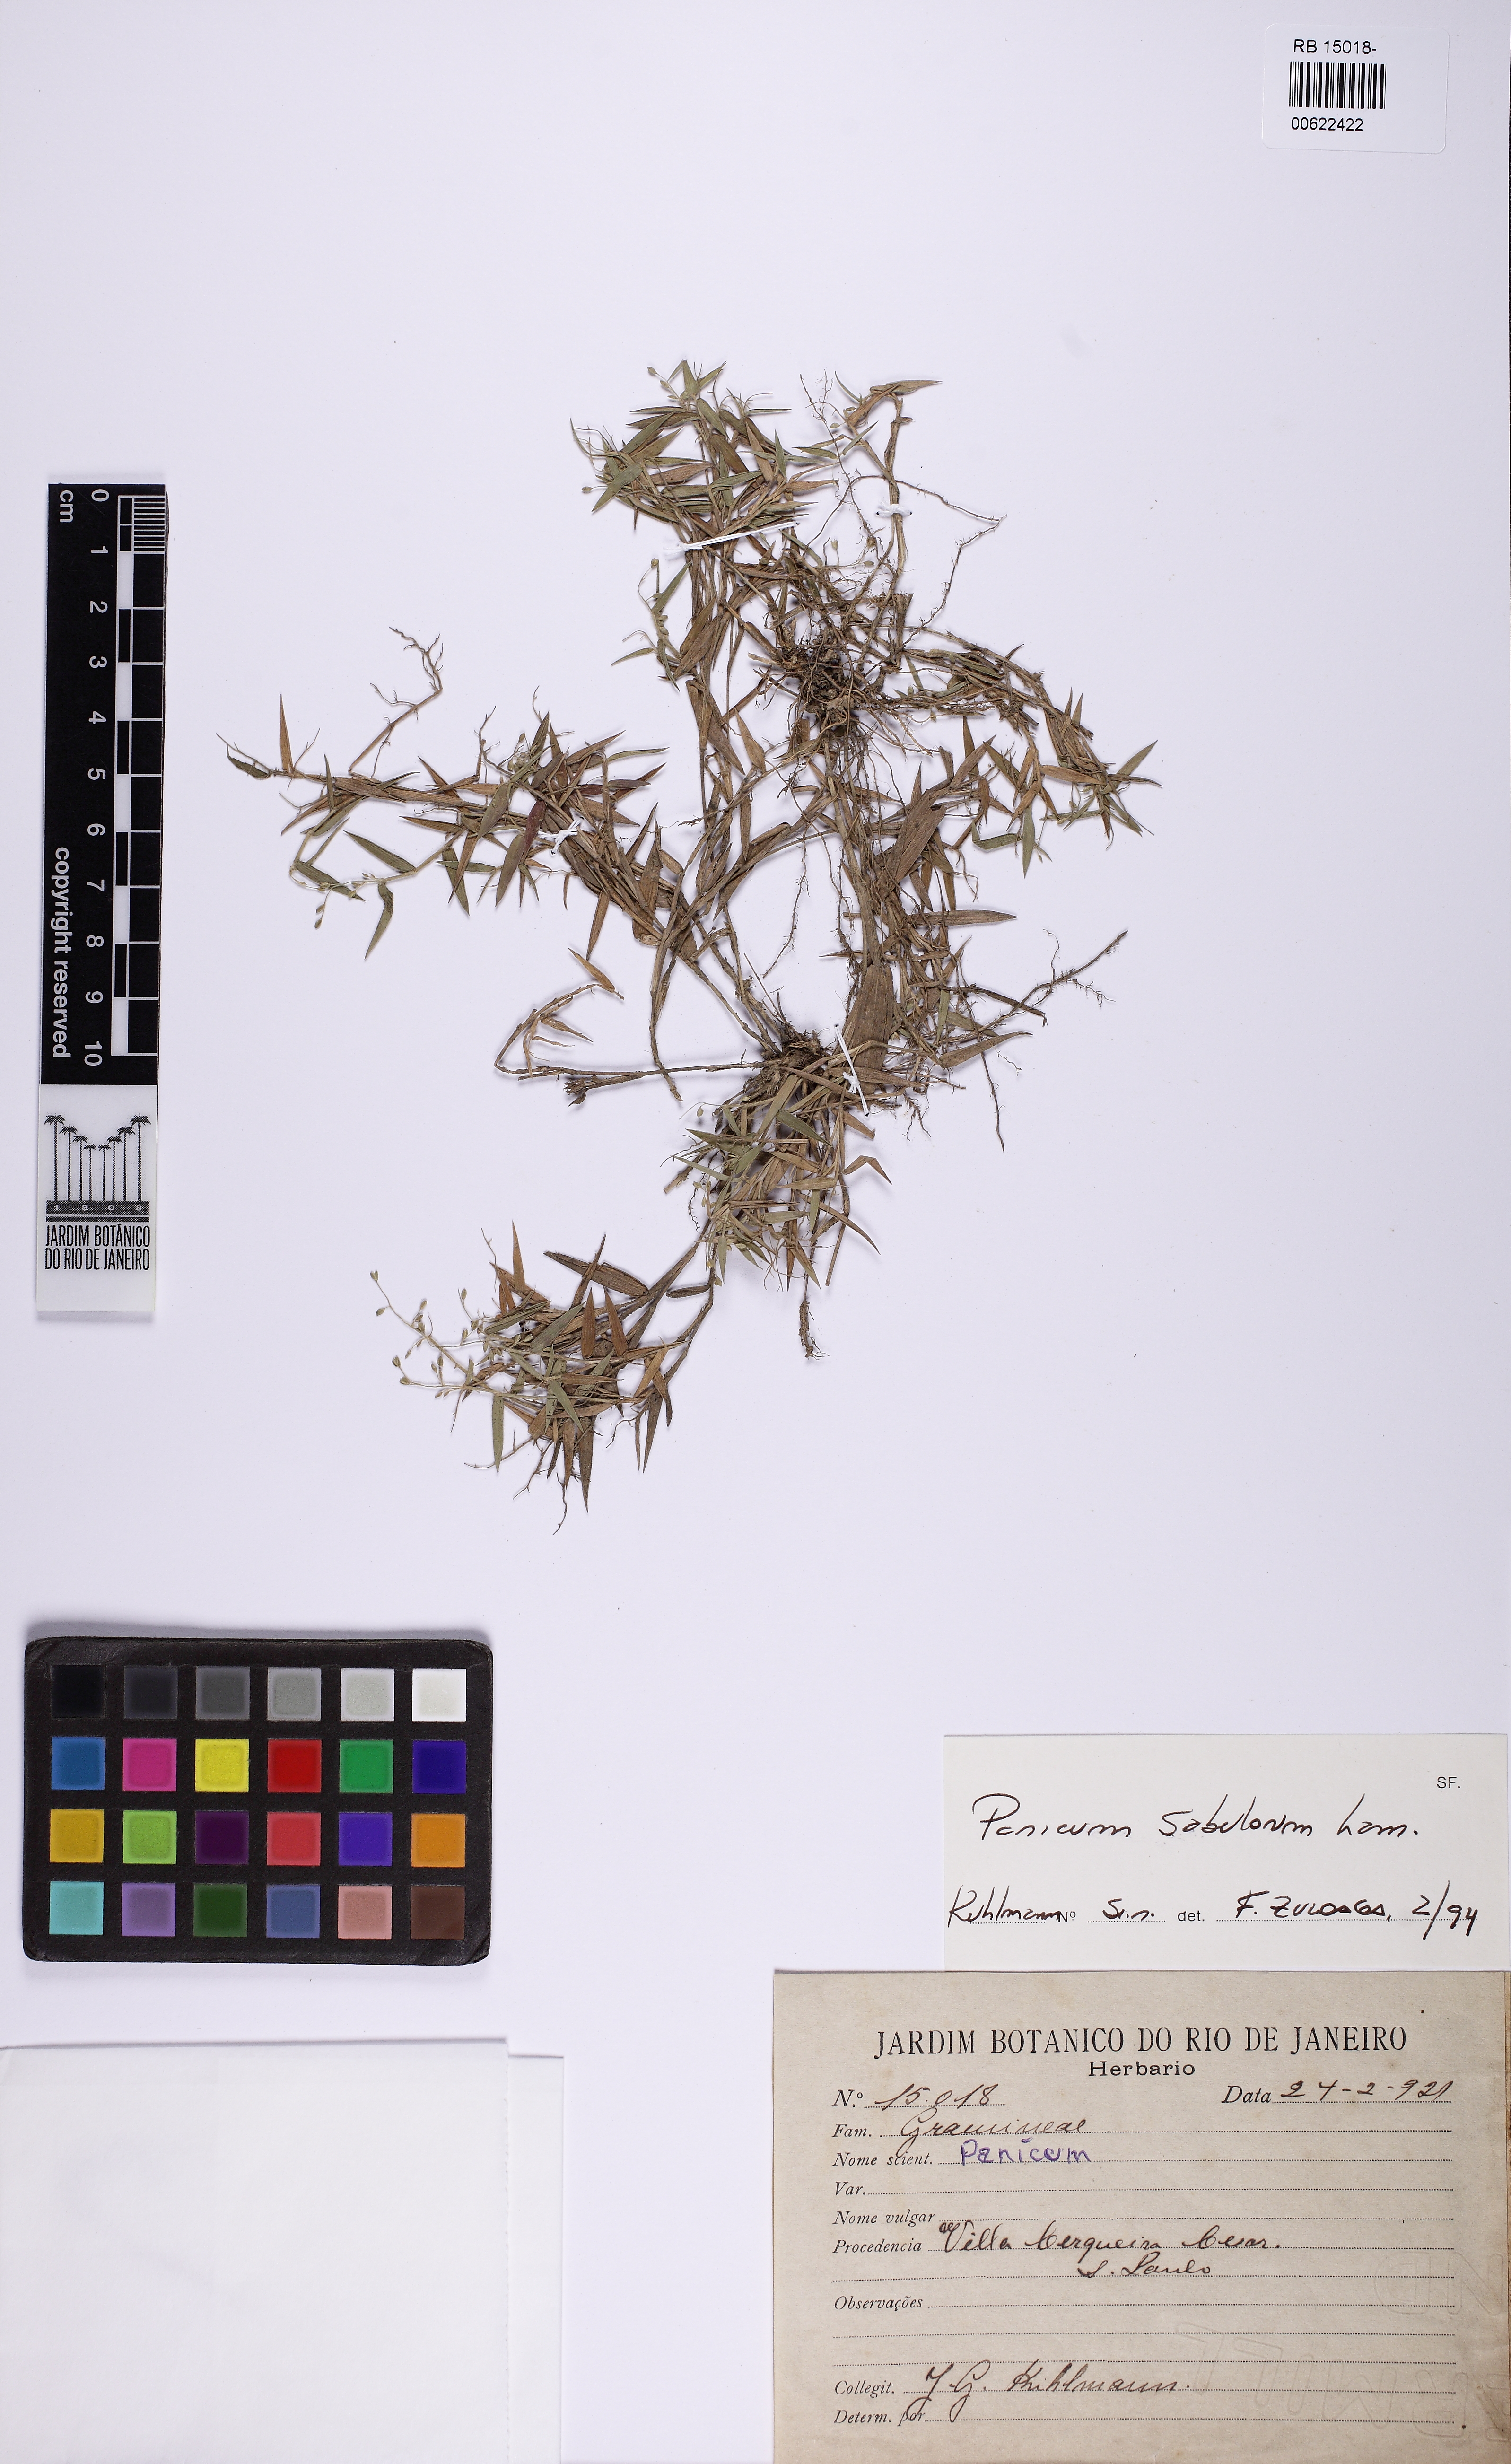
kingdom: Plantae
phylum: Tracheophyta
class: Liliopsida
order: Poales
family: Poaceae
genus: Dichanthelium
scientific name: Dichanthelium sabulorum
